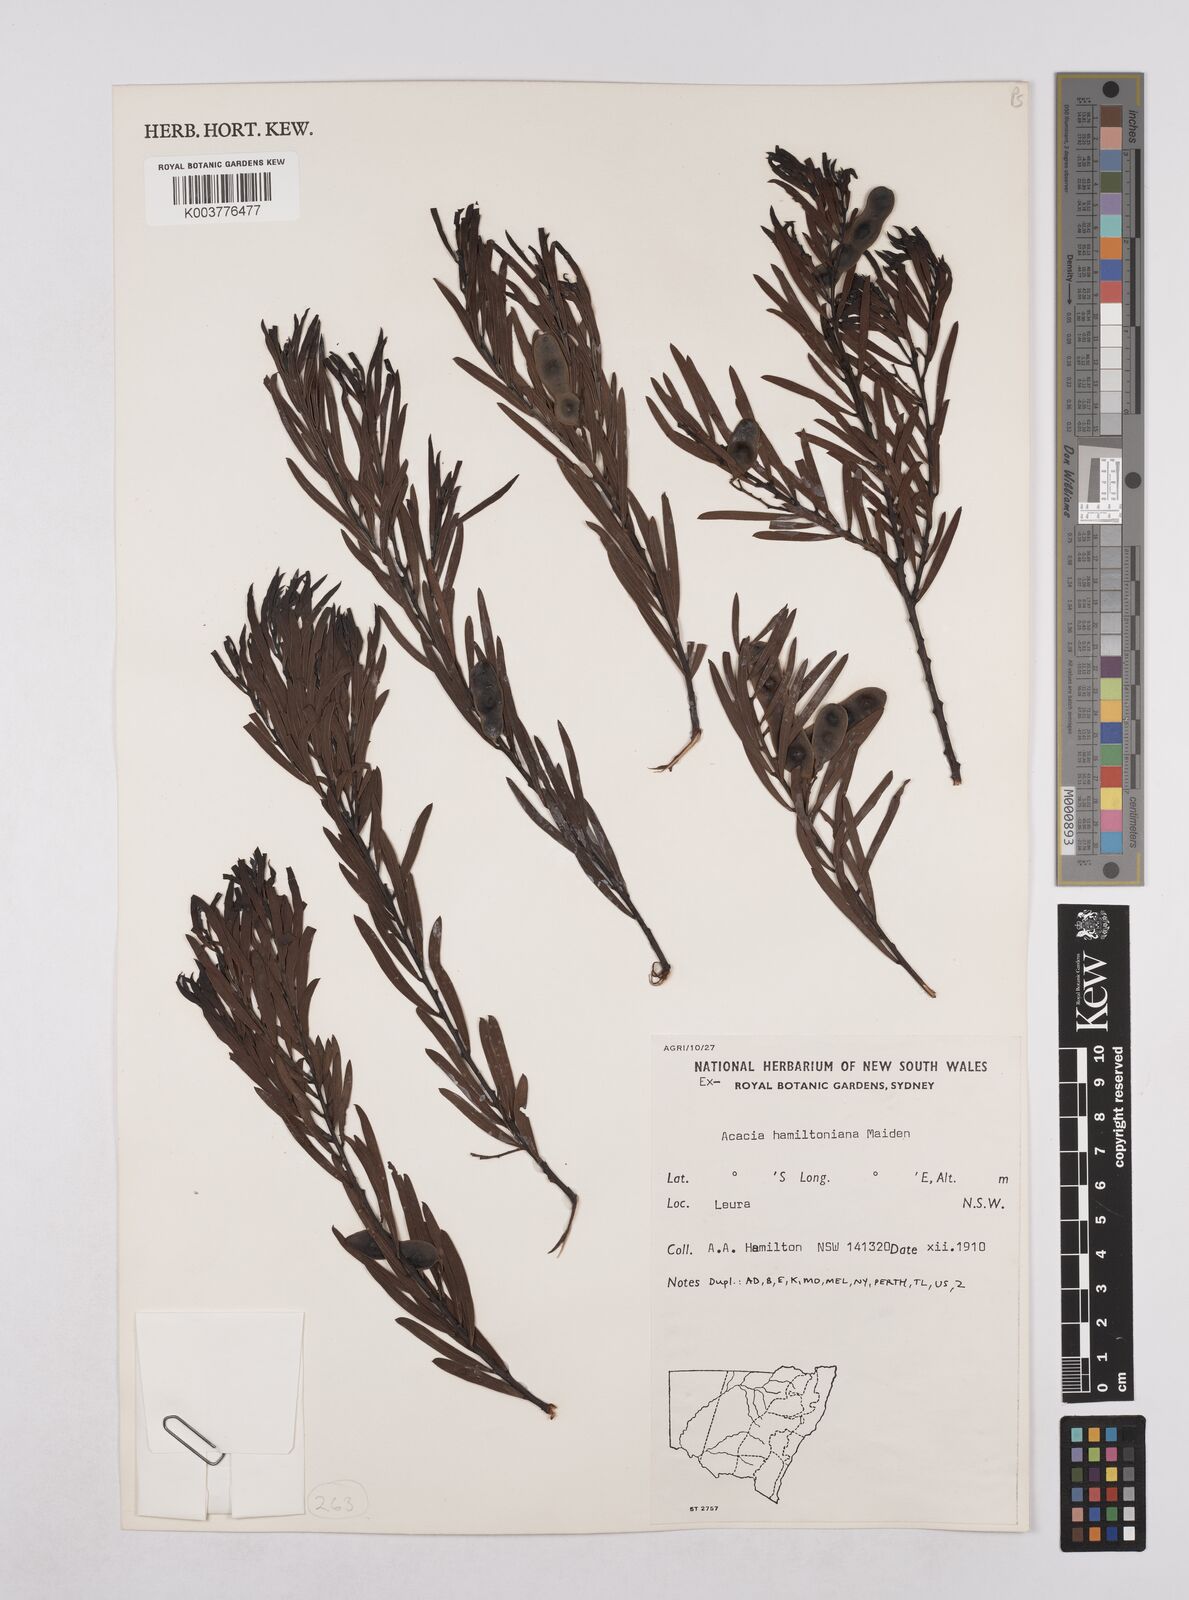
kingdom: Plantae
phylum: Tracheophyta
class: Magnoliopsida
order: Fabales
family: Fabaceae
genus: Acacia
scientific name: Acacia hamiltoniana
